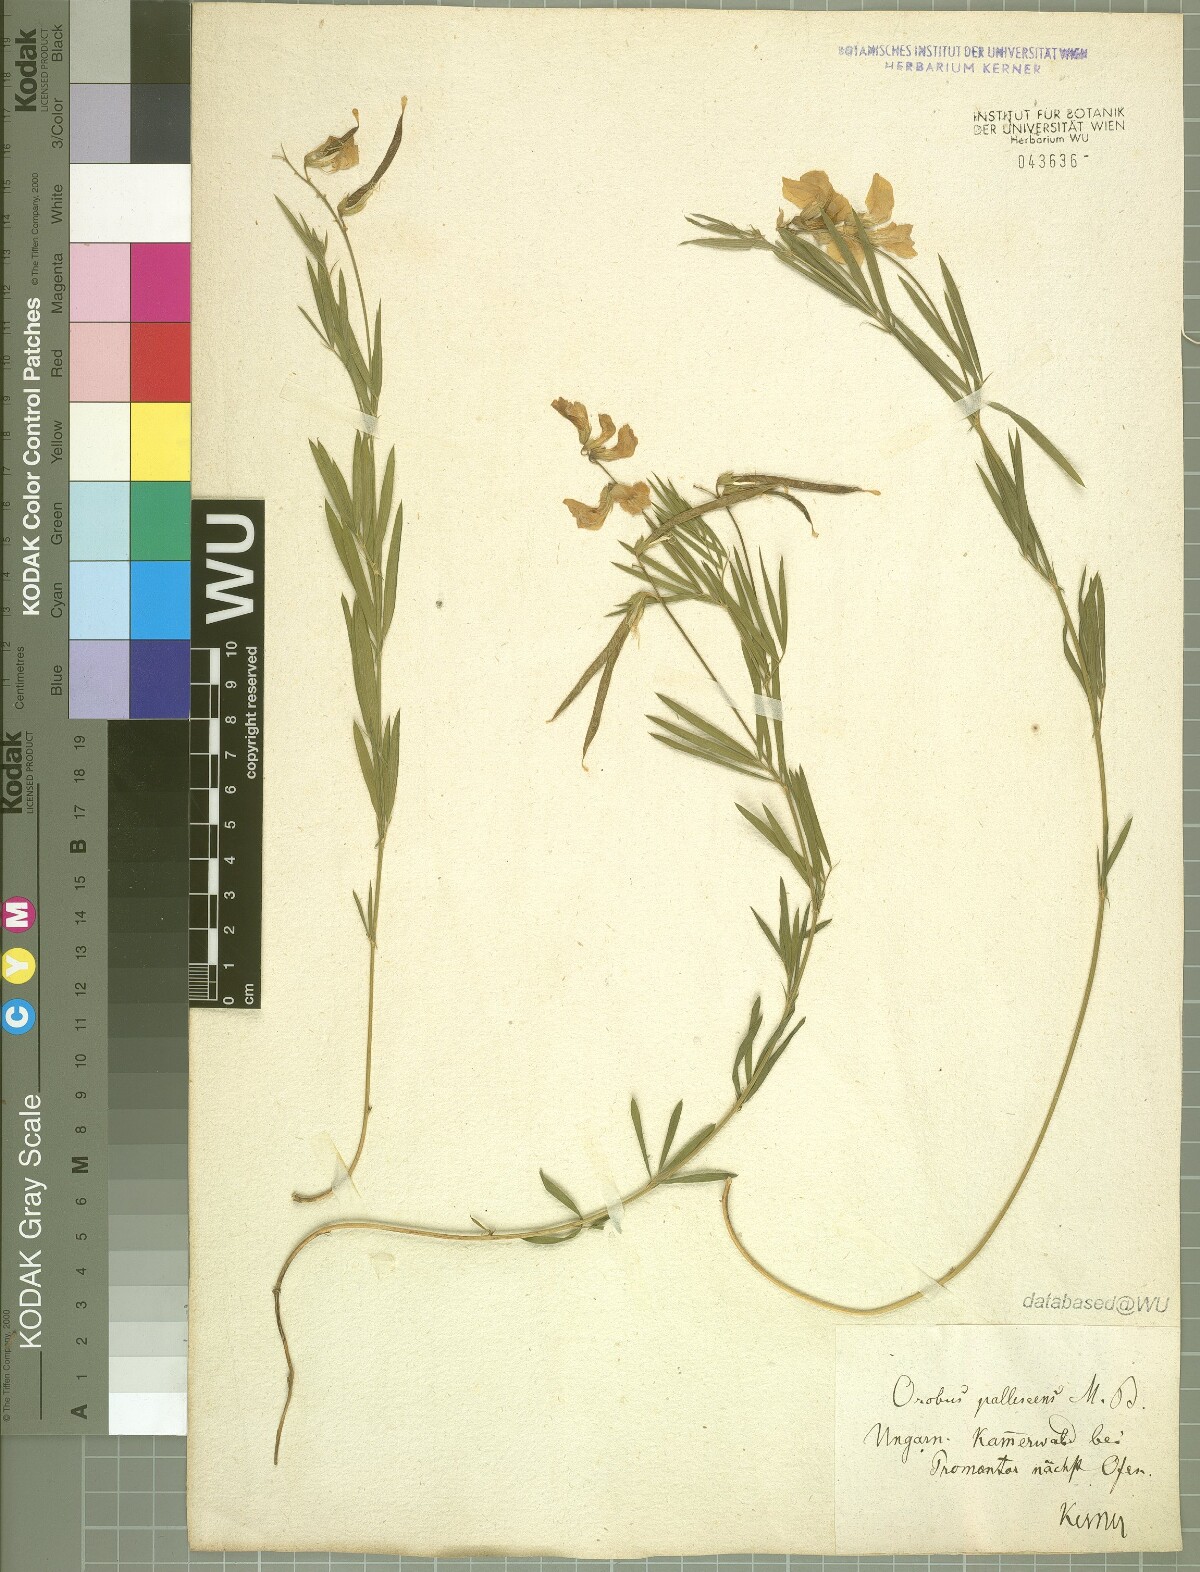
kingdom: Plantae
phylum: Tracheophyta
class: Magnoliopsida
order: Fabales
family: Fabaceae
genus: Lathyrus
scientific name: Lathyrus pallescens
